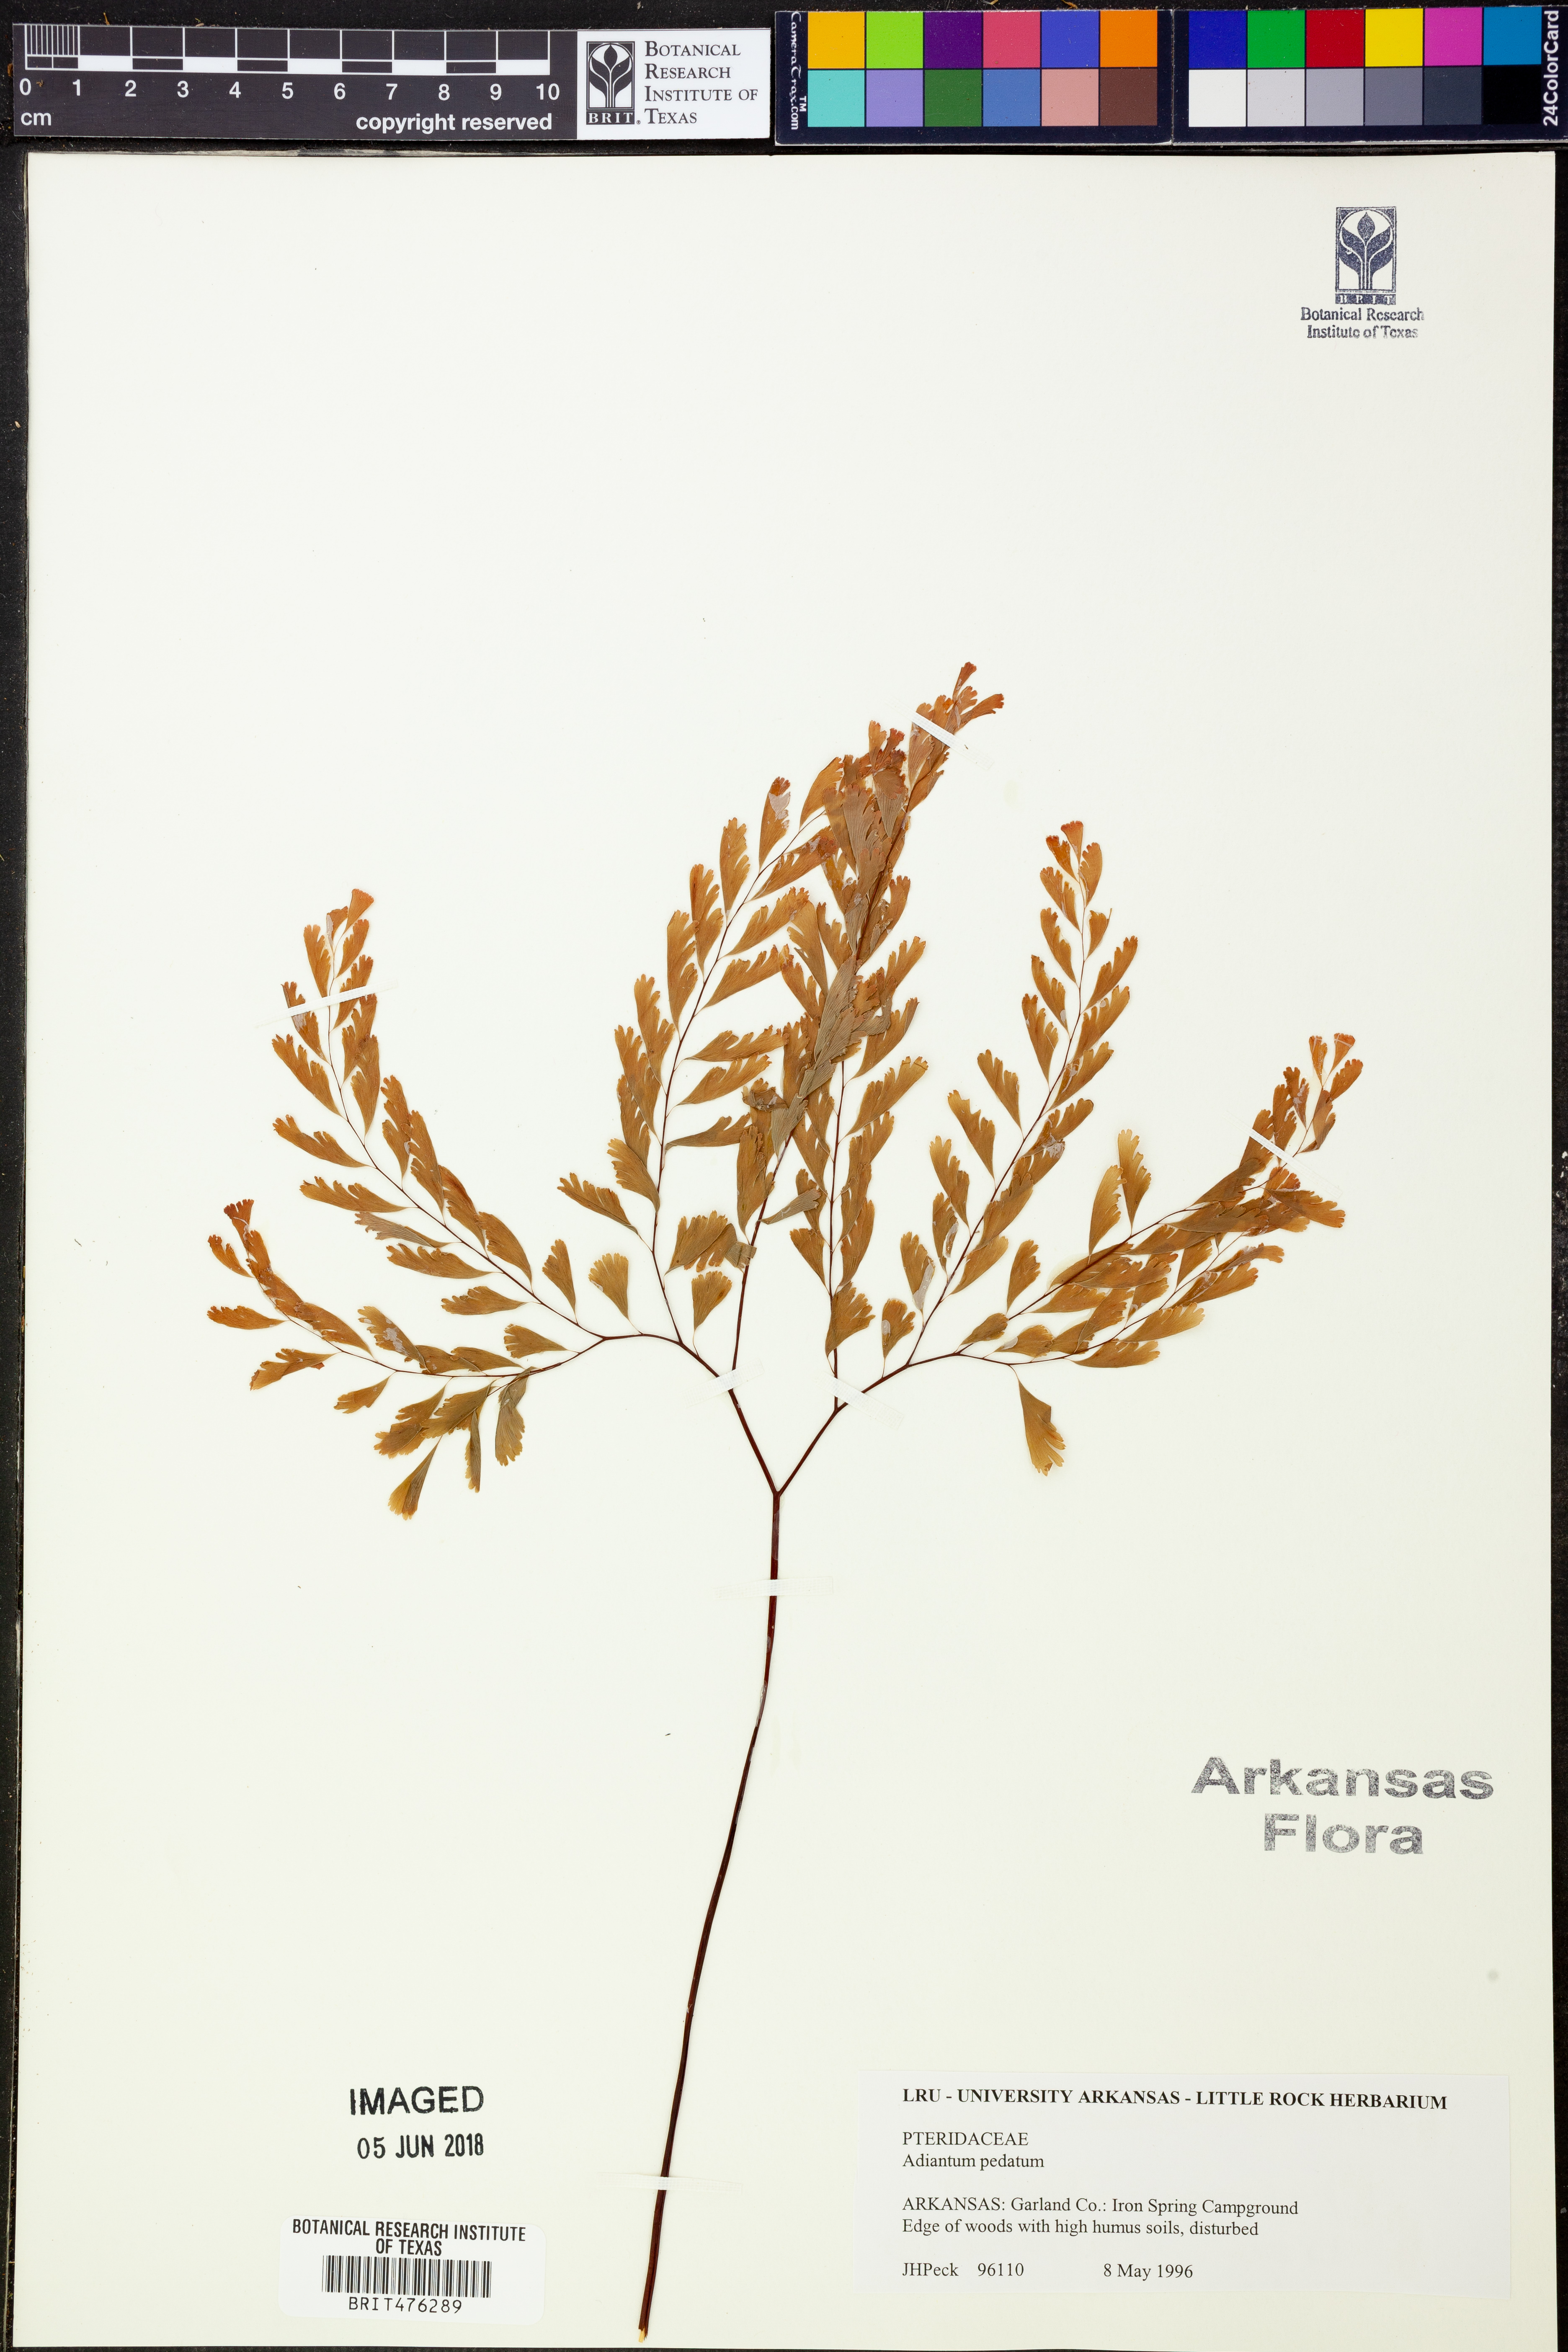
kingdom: Plantae
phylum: Tracheophyta
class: Polypodiopsida
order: Polypodiales
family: Pteridaceae
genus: Adiantum
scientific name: Adiantum pedatum
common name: Five-finger fern
